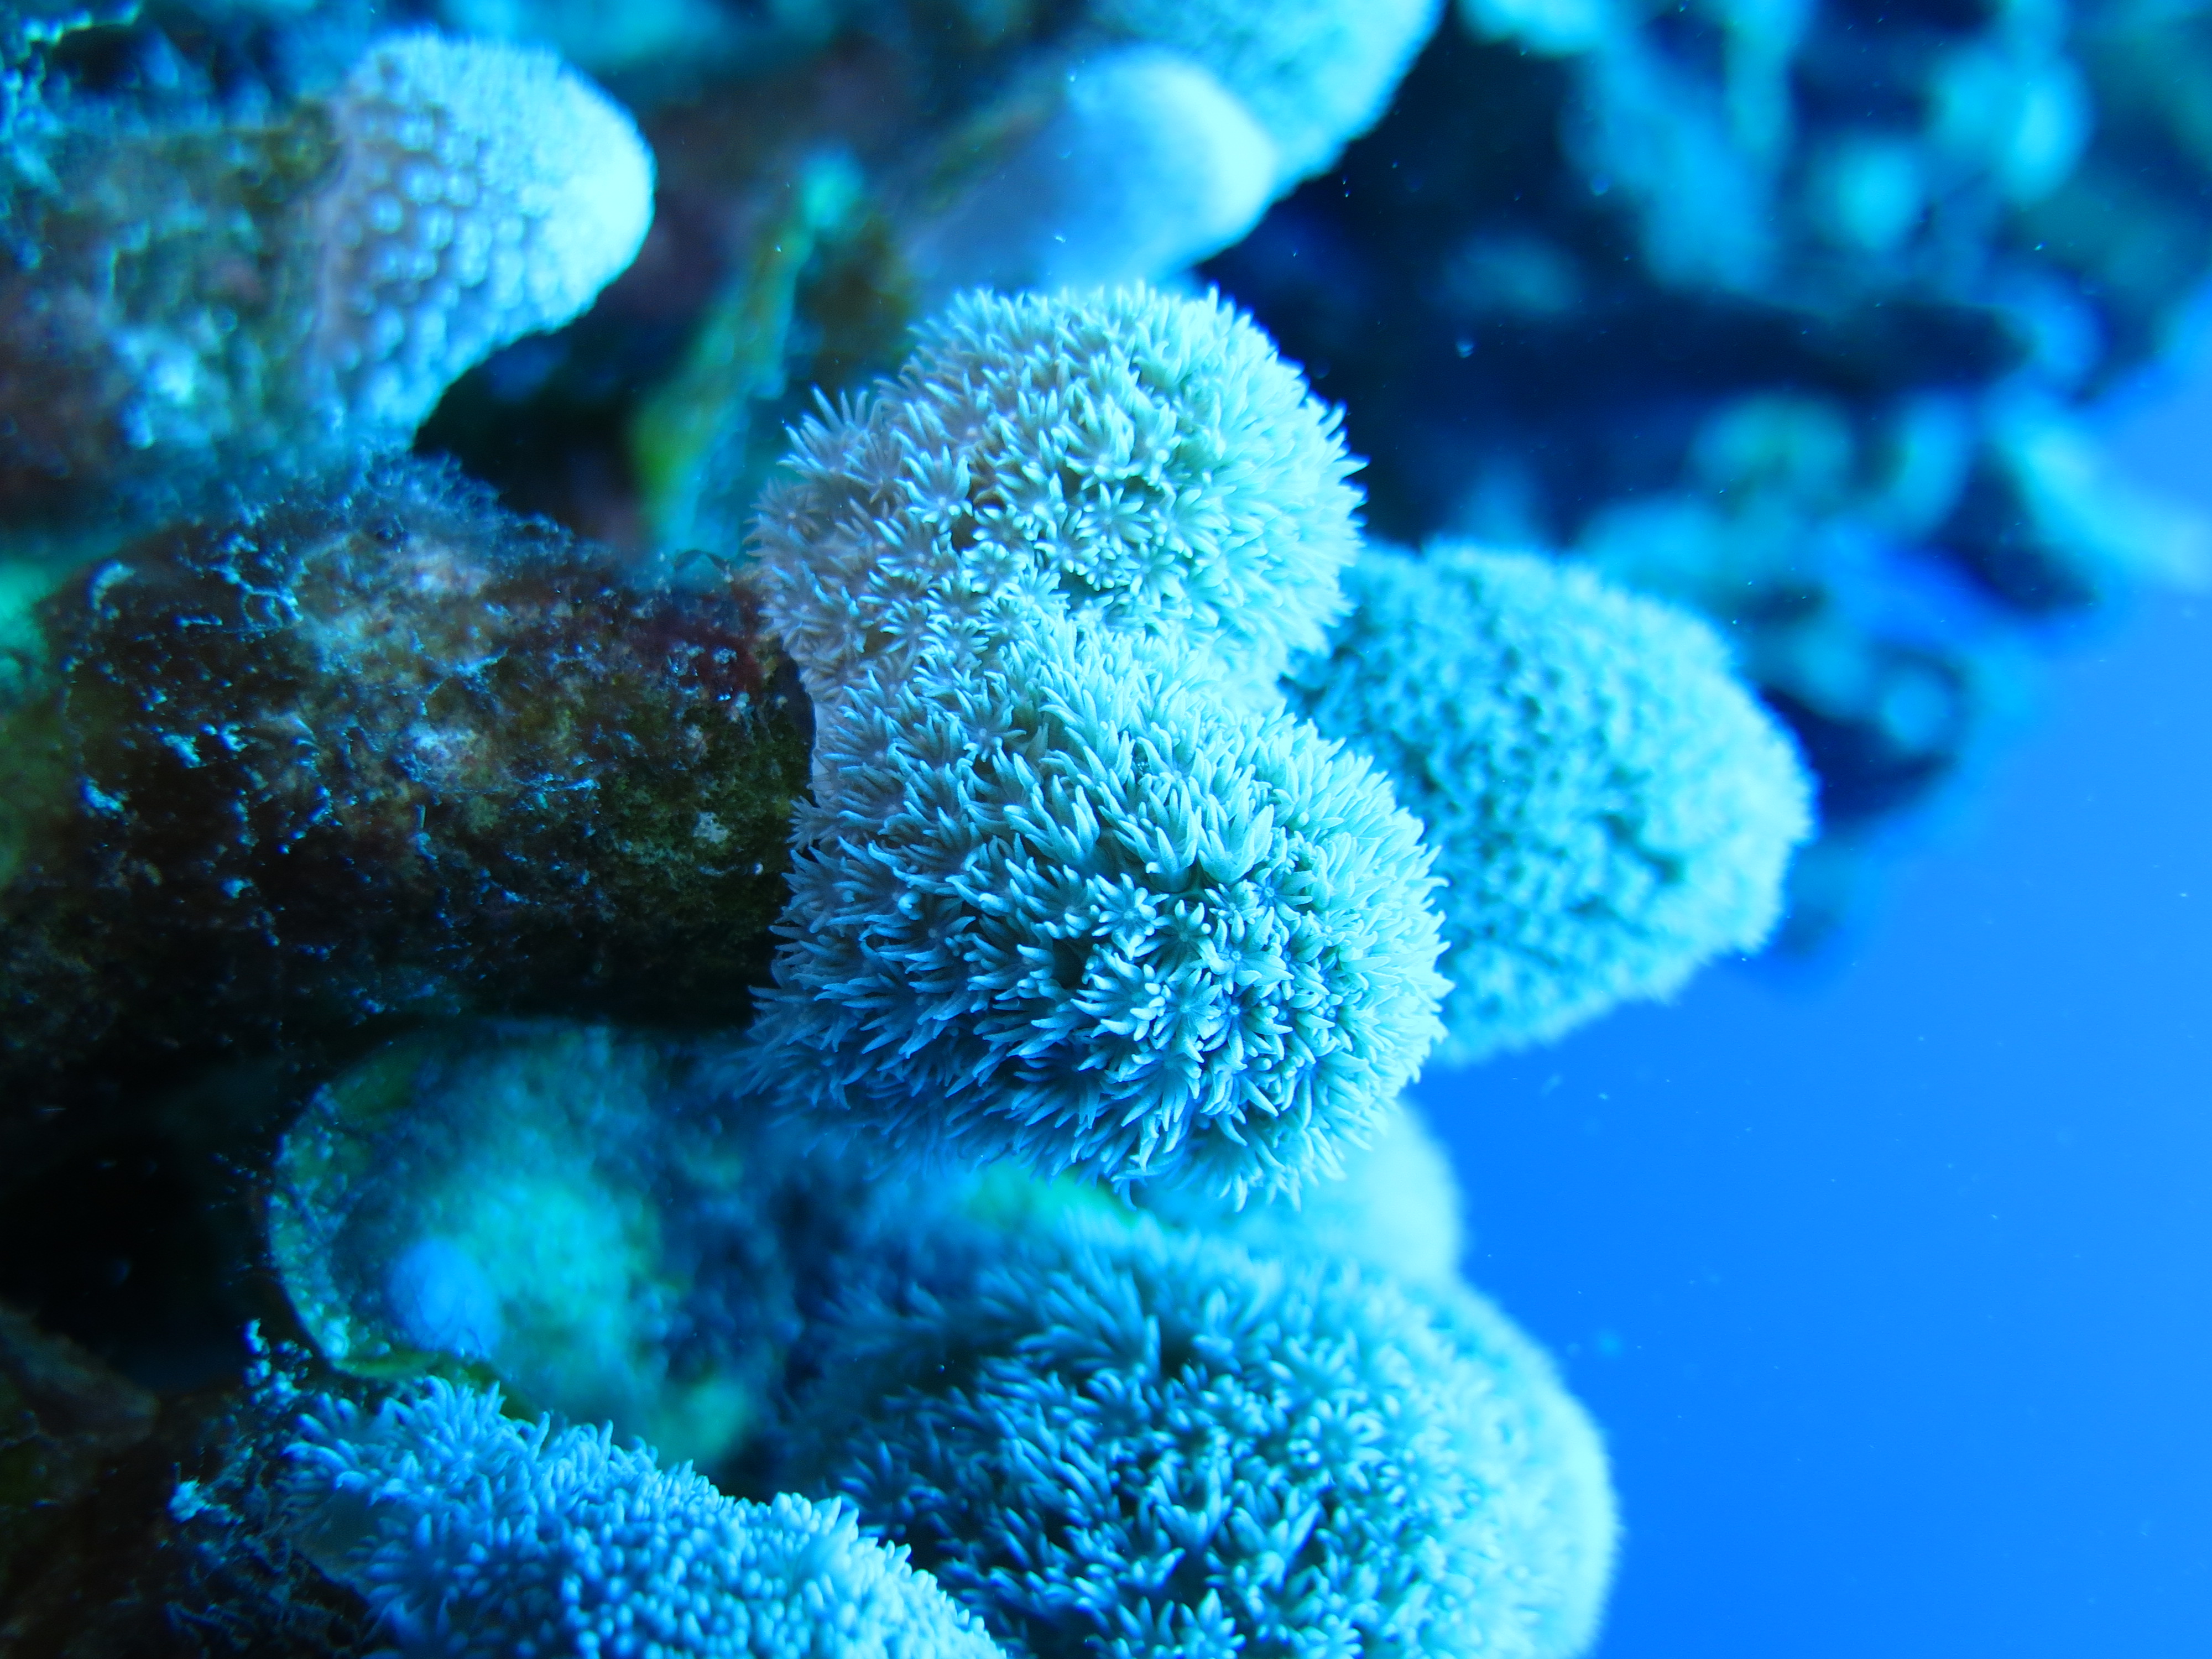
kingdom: Animalia
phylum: Cnidaria
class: Anthozoa
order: Scleractinia
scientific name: Scleractinia
